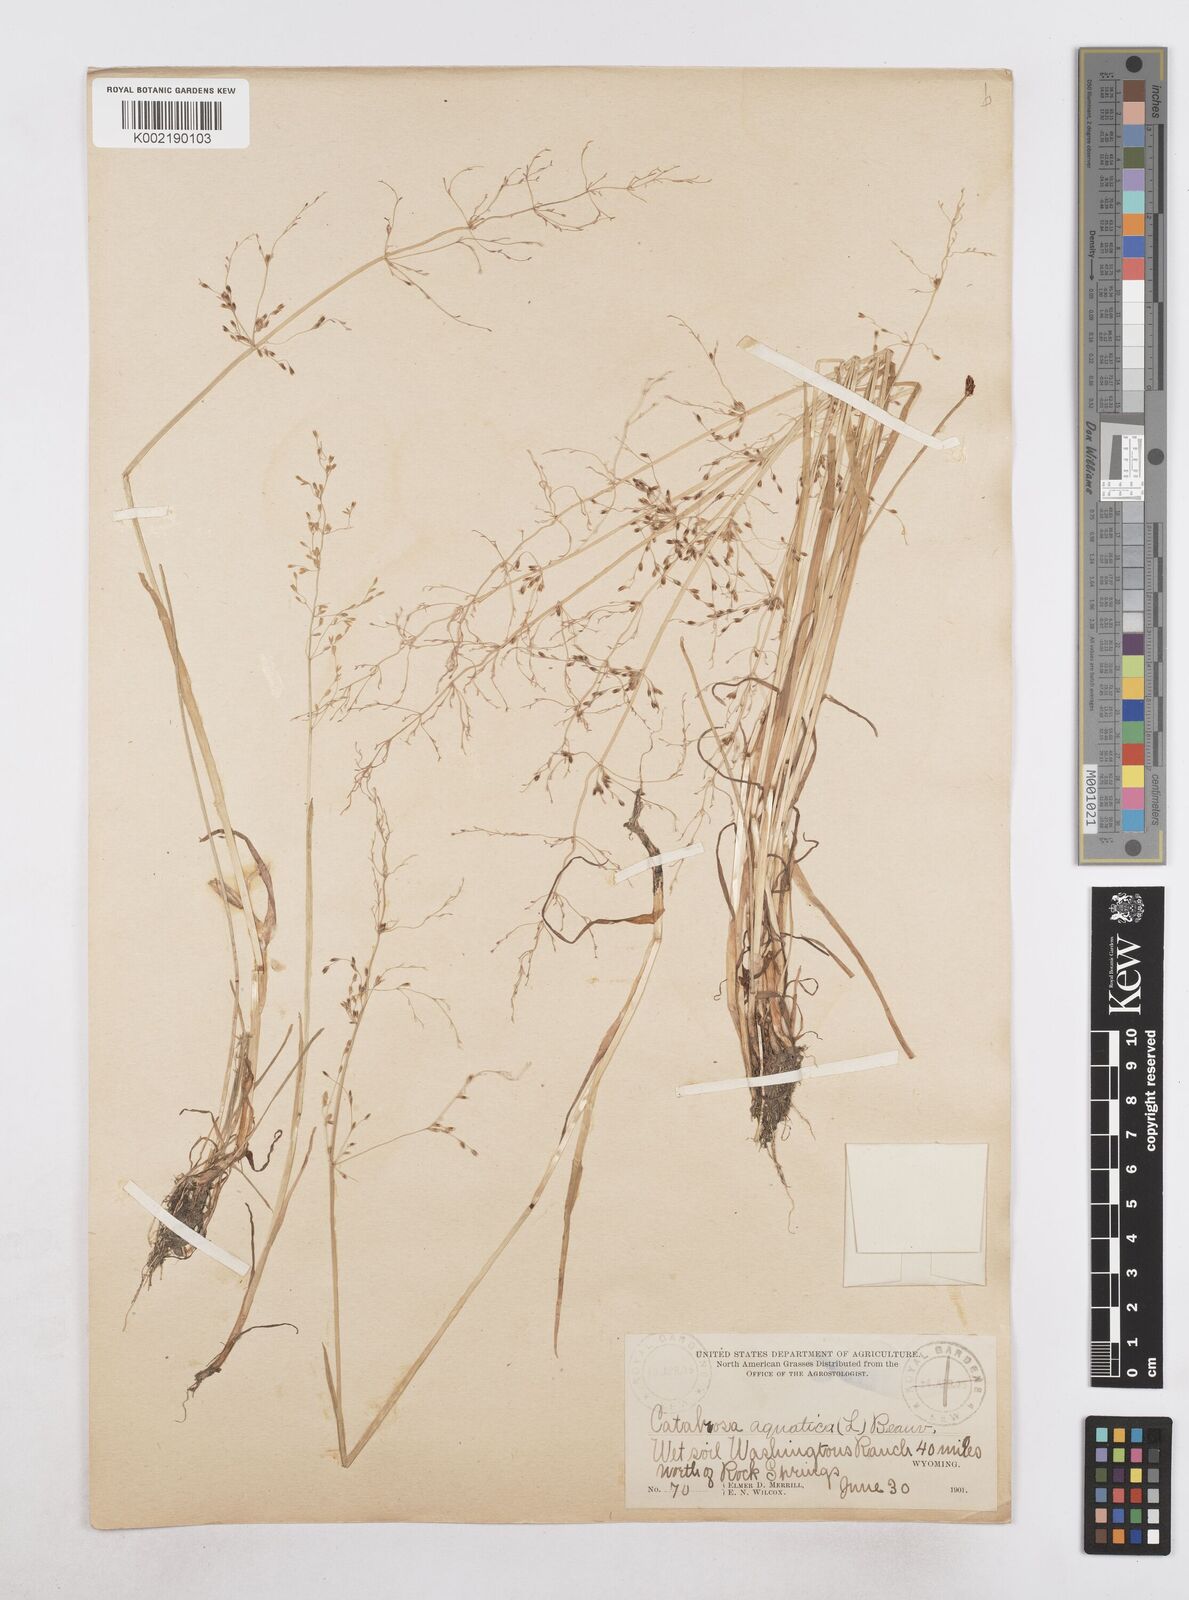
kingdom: Plantae
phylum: Tracheophyta
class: Liliopsida
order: Poales
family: Poaceae
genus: Catabrosa
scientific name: Catabrosa aquatica
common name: Whorl-grass
